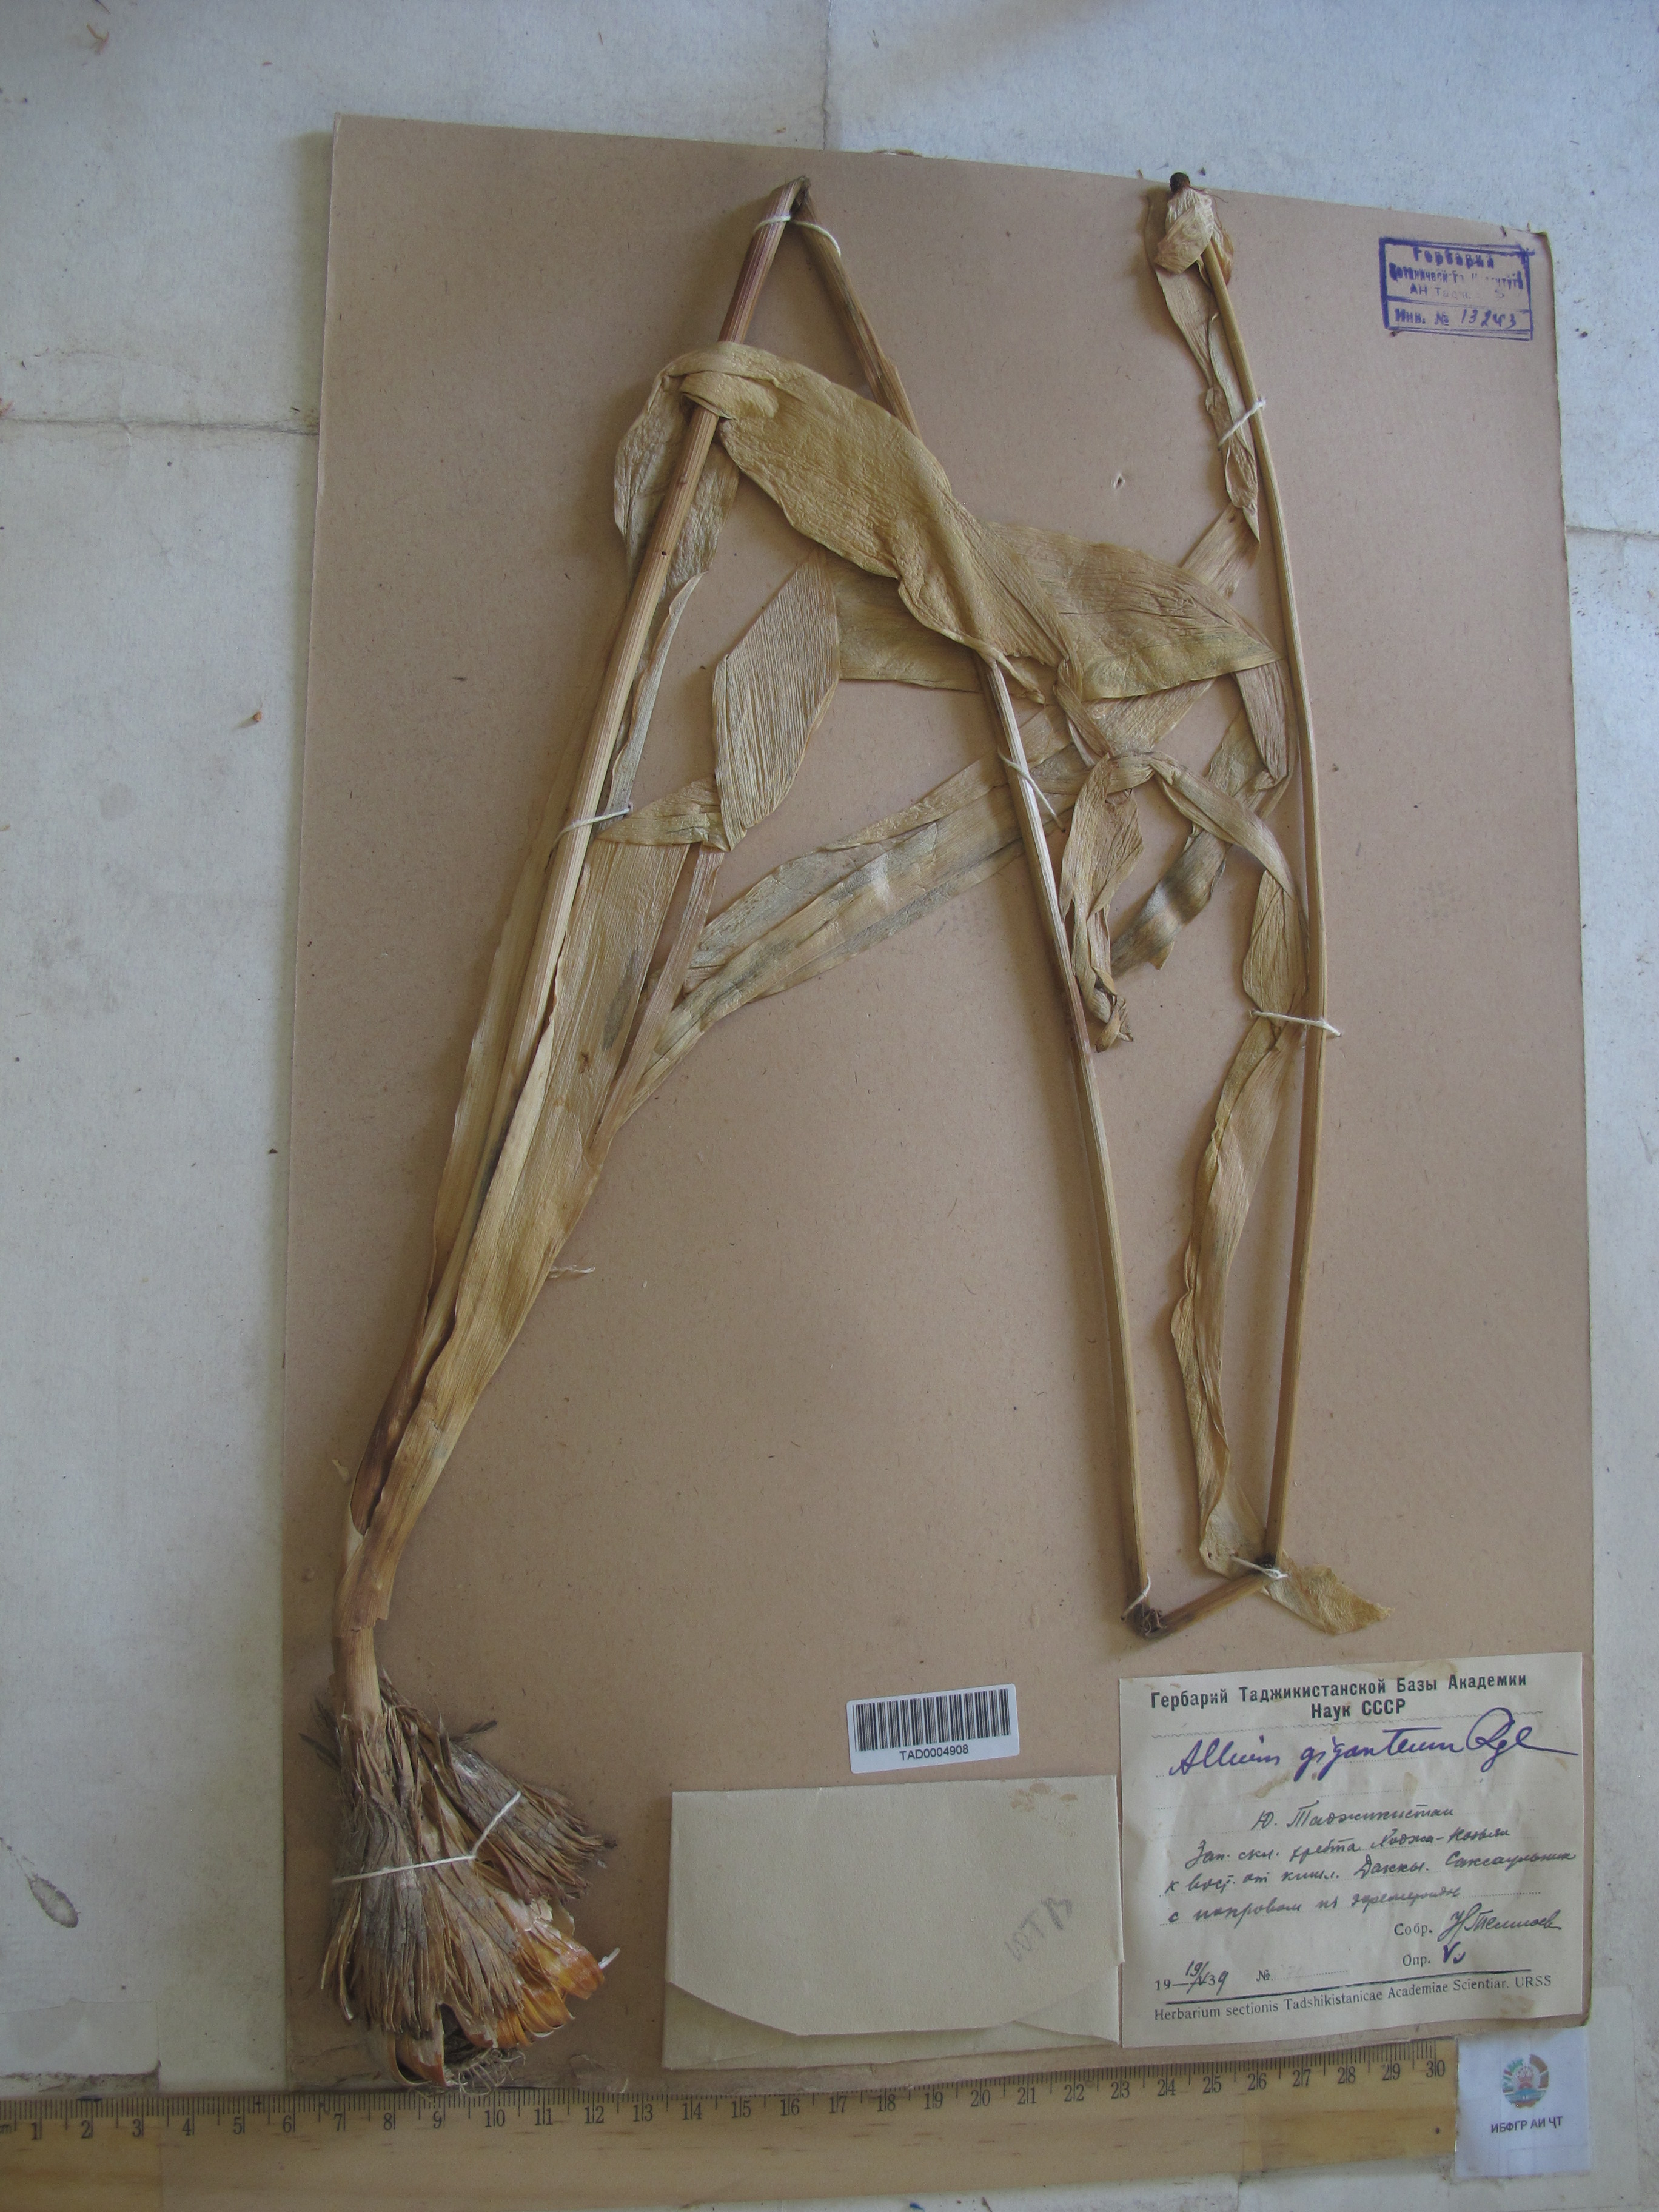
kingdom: Plantae
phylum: Tracheophyta
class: Liliopsida
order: Asparagales
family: Amaryllidaceae
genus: Allium
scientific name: Allium giganteum
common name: Giant onion
